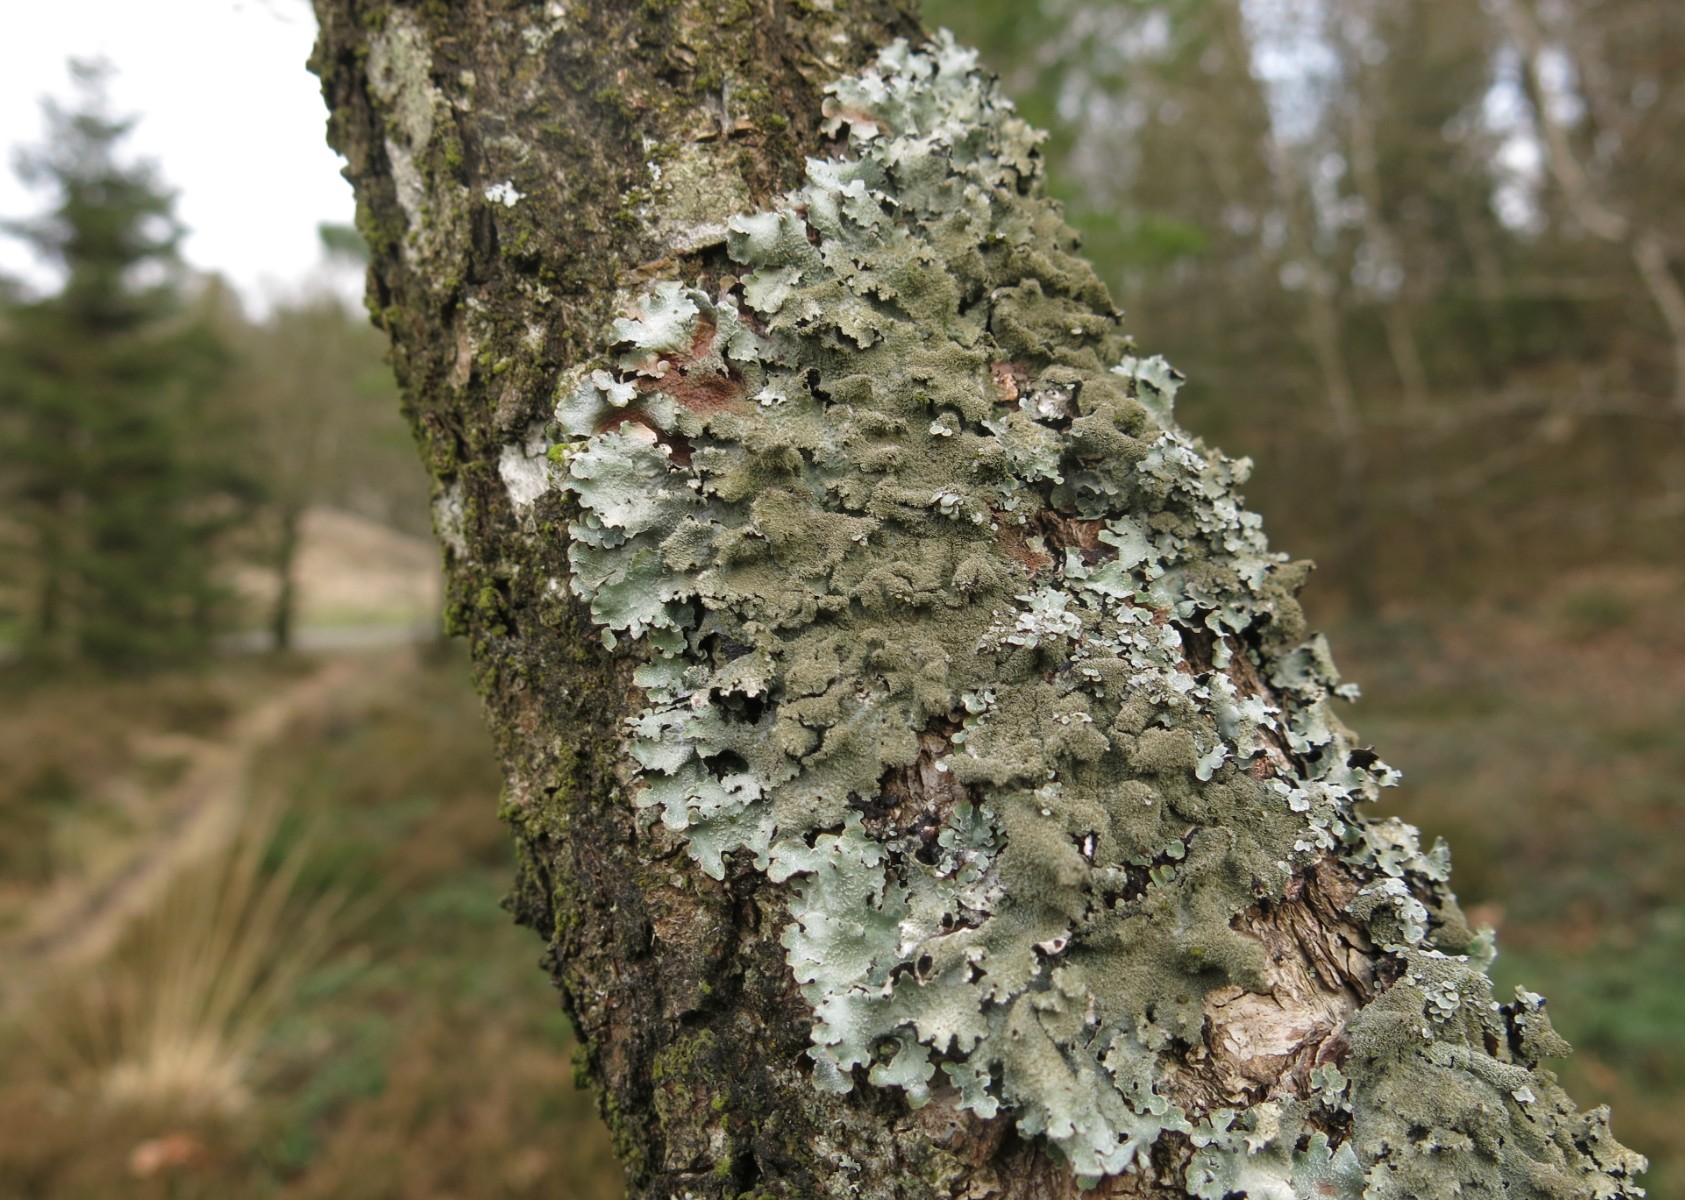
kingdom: Fungi
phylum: Ascomycota
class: Lecanoromycetes
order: Lecanorales
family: Parmeliaceae
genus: Parmelia
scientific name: Parmelia saxatilis
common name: farve-skållav
